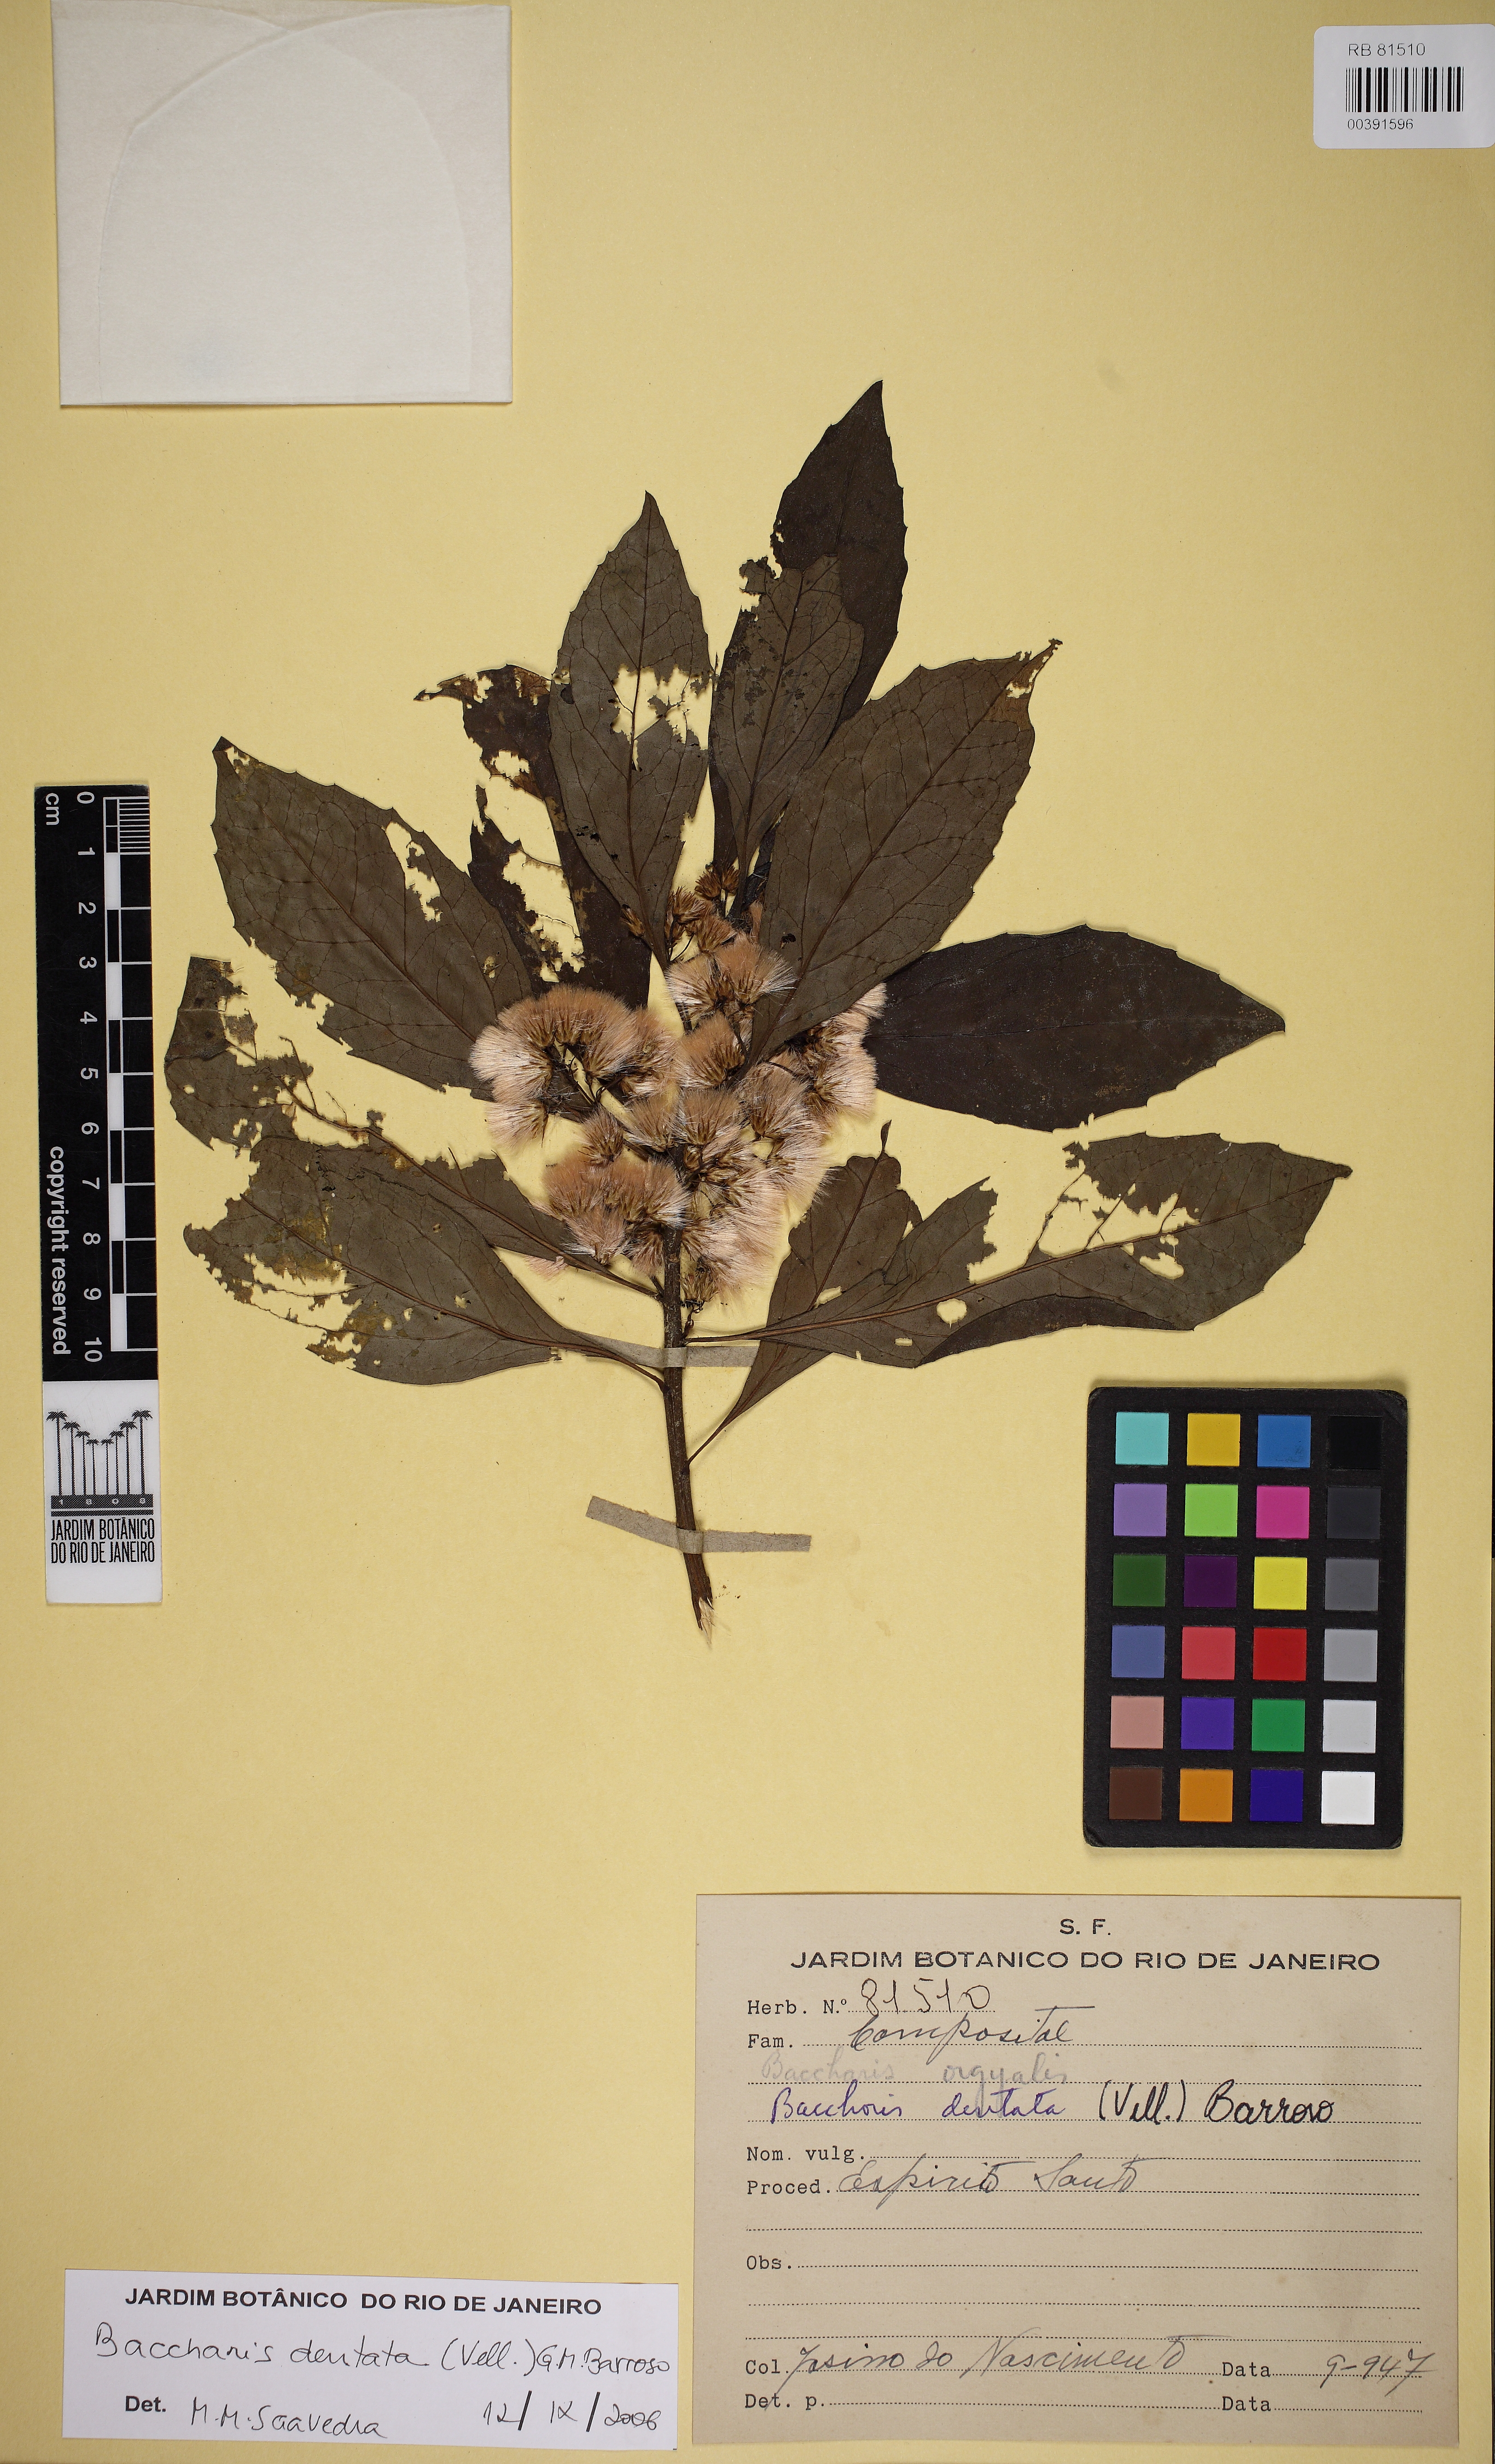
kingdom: Plantae
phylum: Tracheophyta
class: Magnoliopsida
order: Asterales
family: Asteraceae
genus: Baccharis
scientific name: Baccharis dentata
